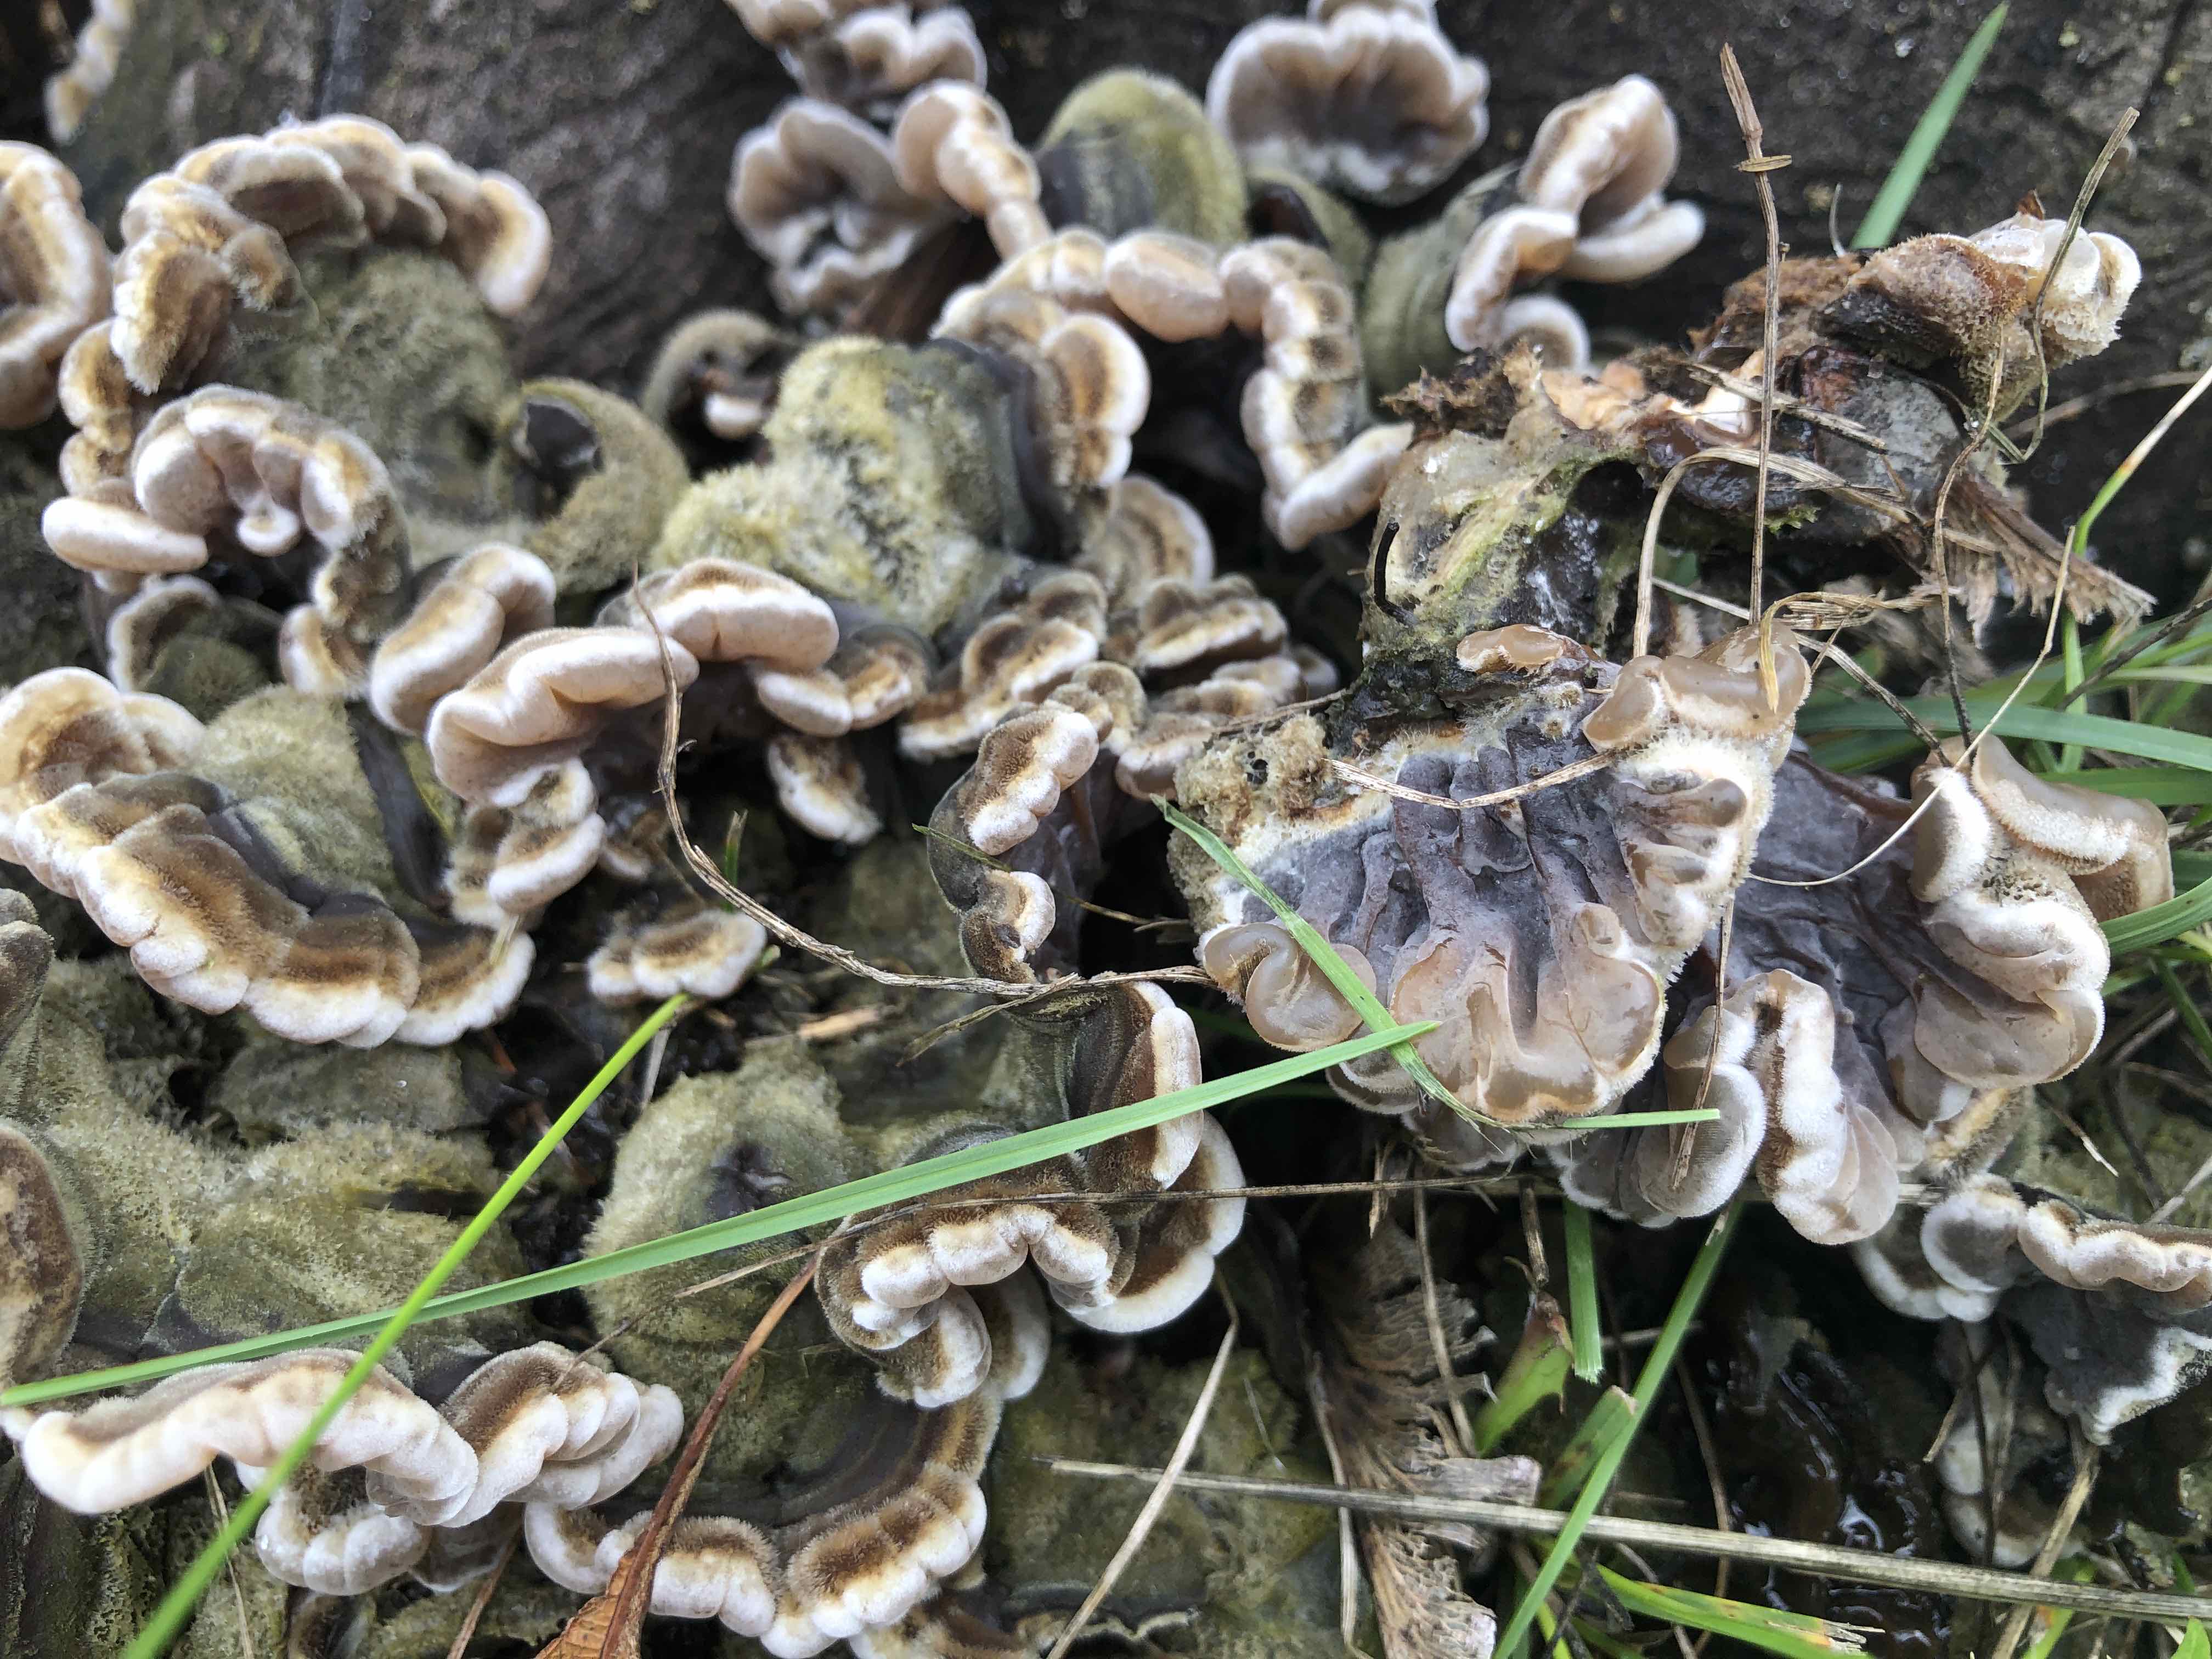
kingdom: Fungi
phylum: Basidiomycota
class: Agaricomycetes
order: Auriculariales
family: Auriculariaceae
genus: Auricularia
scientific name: Auricularia mesenterica
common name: håret judasøre
